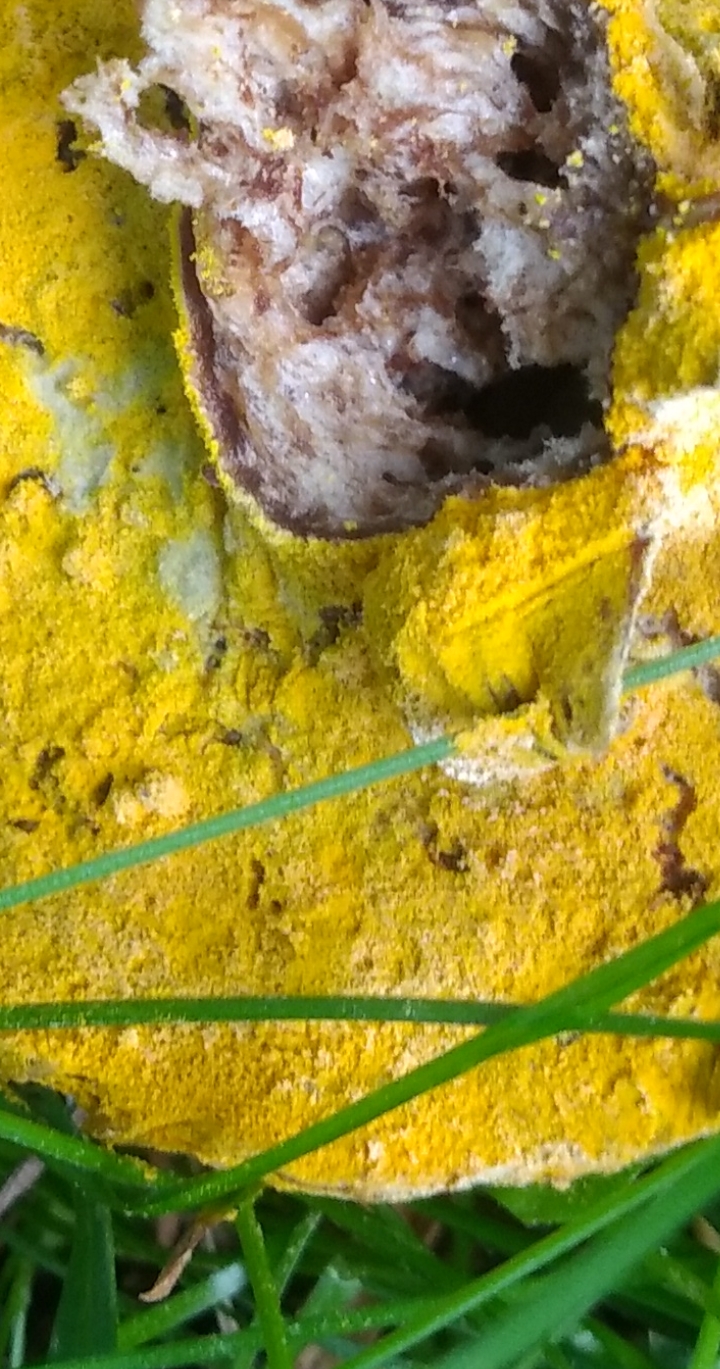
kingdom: Fungi
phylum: Ascomycota
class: Sordariomycetes
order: Hypocreales
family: Hypocreaceae
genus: Hypomyces
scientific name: Hypomyces
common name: snylteskorpe
